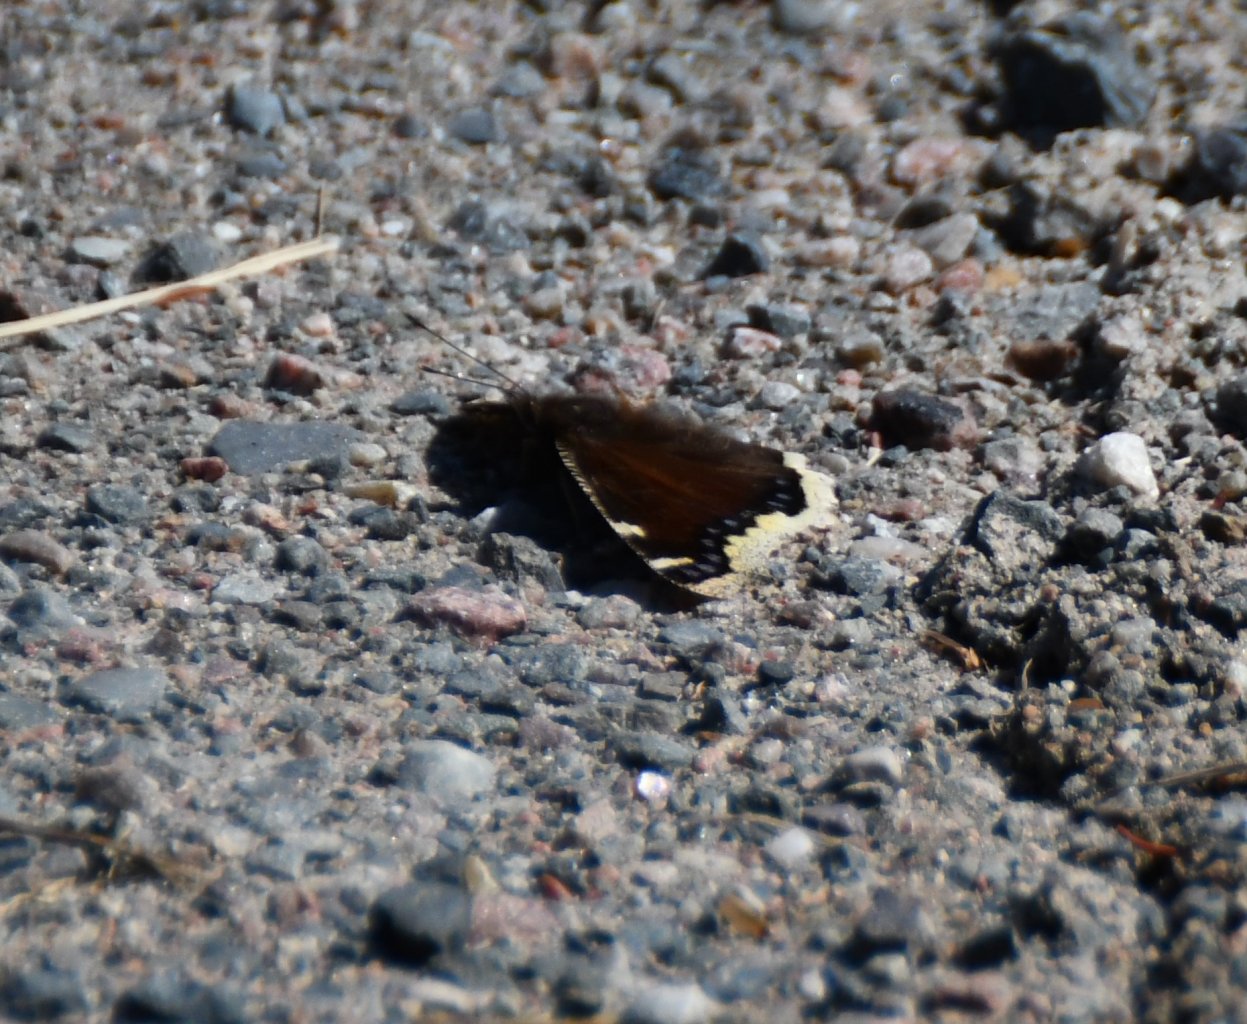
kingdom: Animalia
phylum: Arthropoda
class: Insecta
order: Lepidoptera
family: Nymphalidae
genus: Nymphalis
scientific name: Nymphalis antiopa
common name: Mourning Cloak
